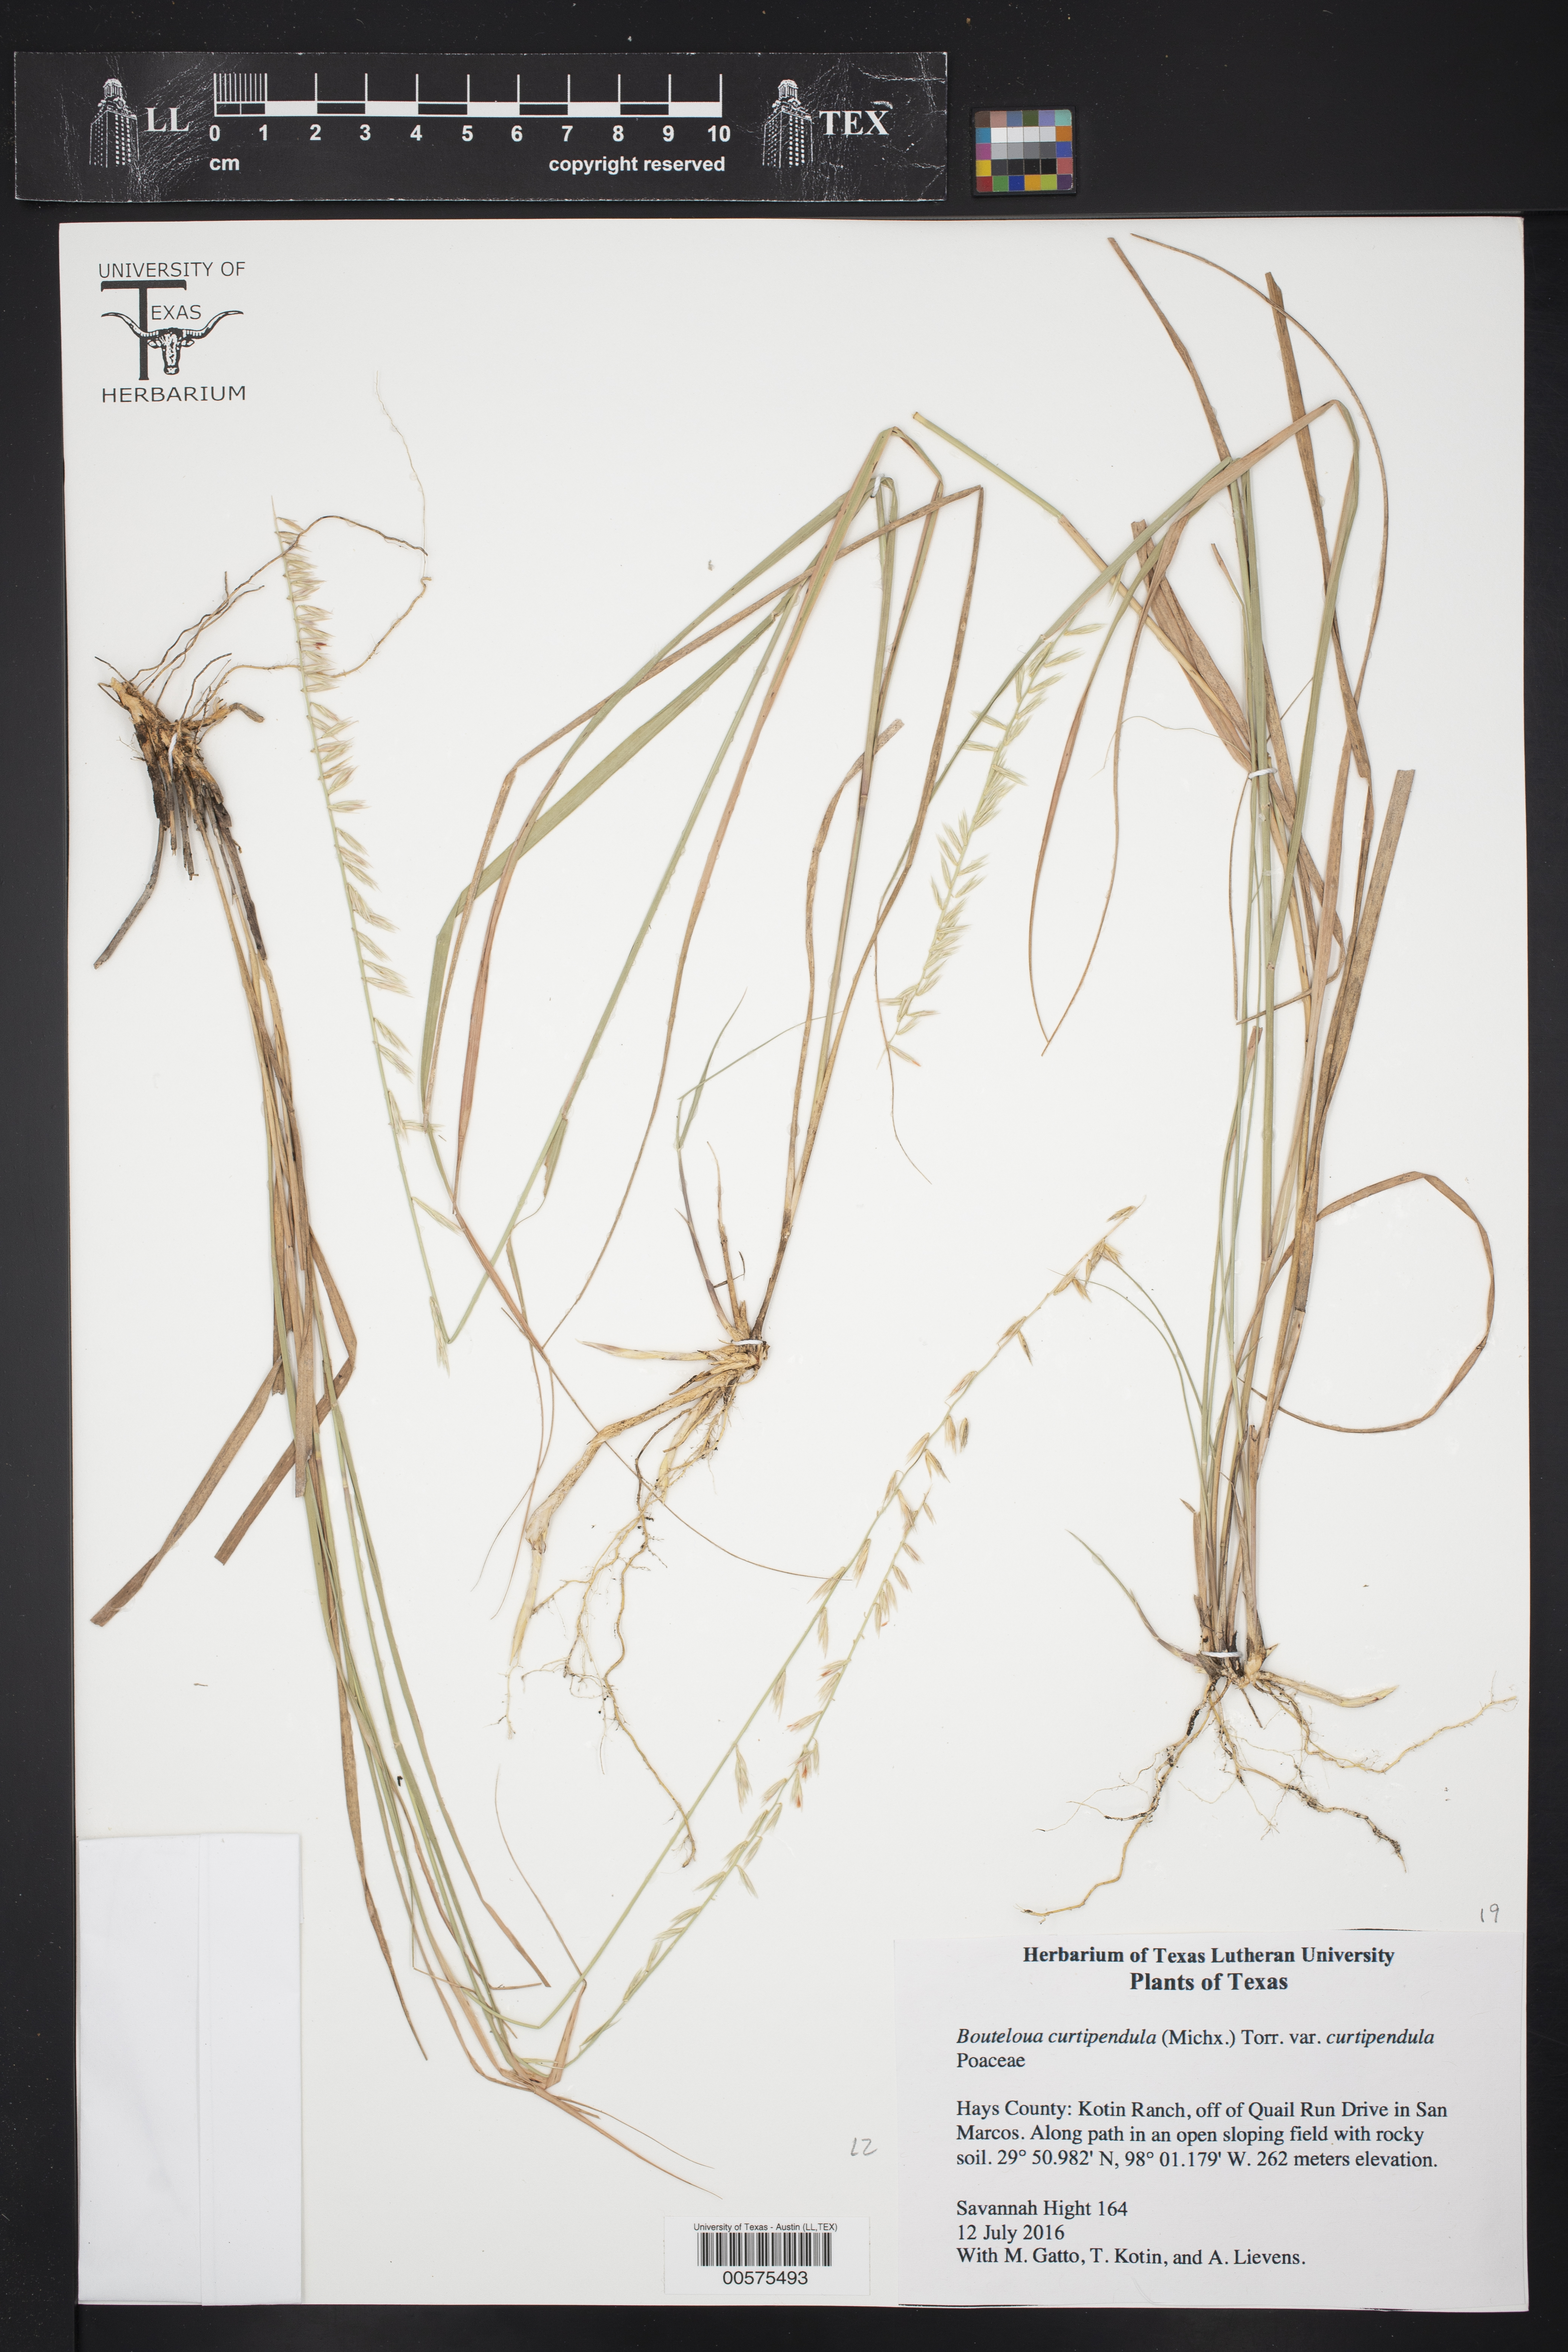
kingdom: Plantae
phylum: Tracheophyta
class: Liliopsida
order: Poales
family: Poaceae
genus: Bouteloua
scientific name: Bouteloua curtipendula
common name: Side-oats grama
